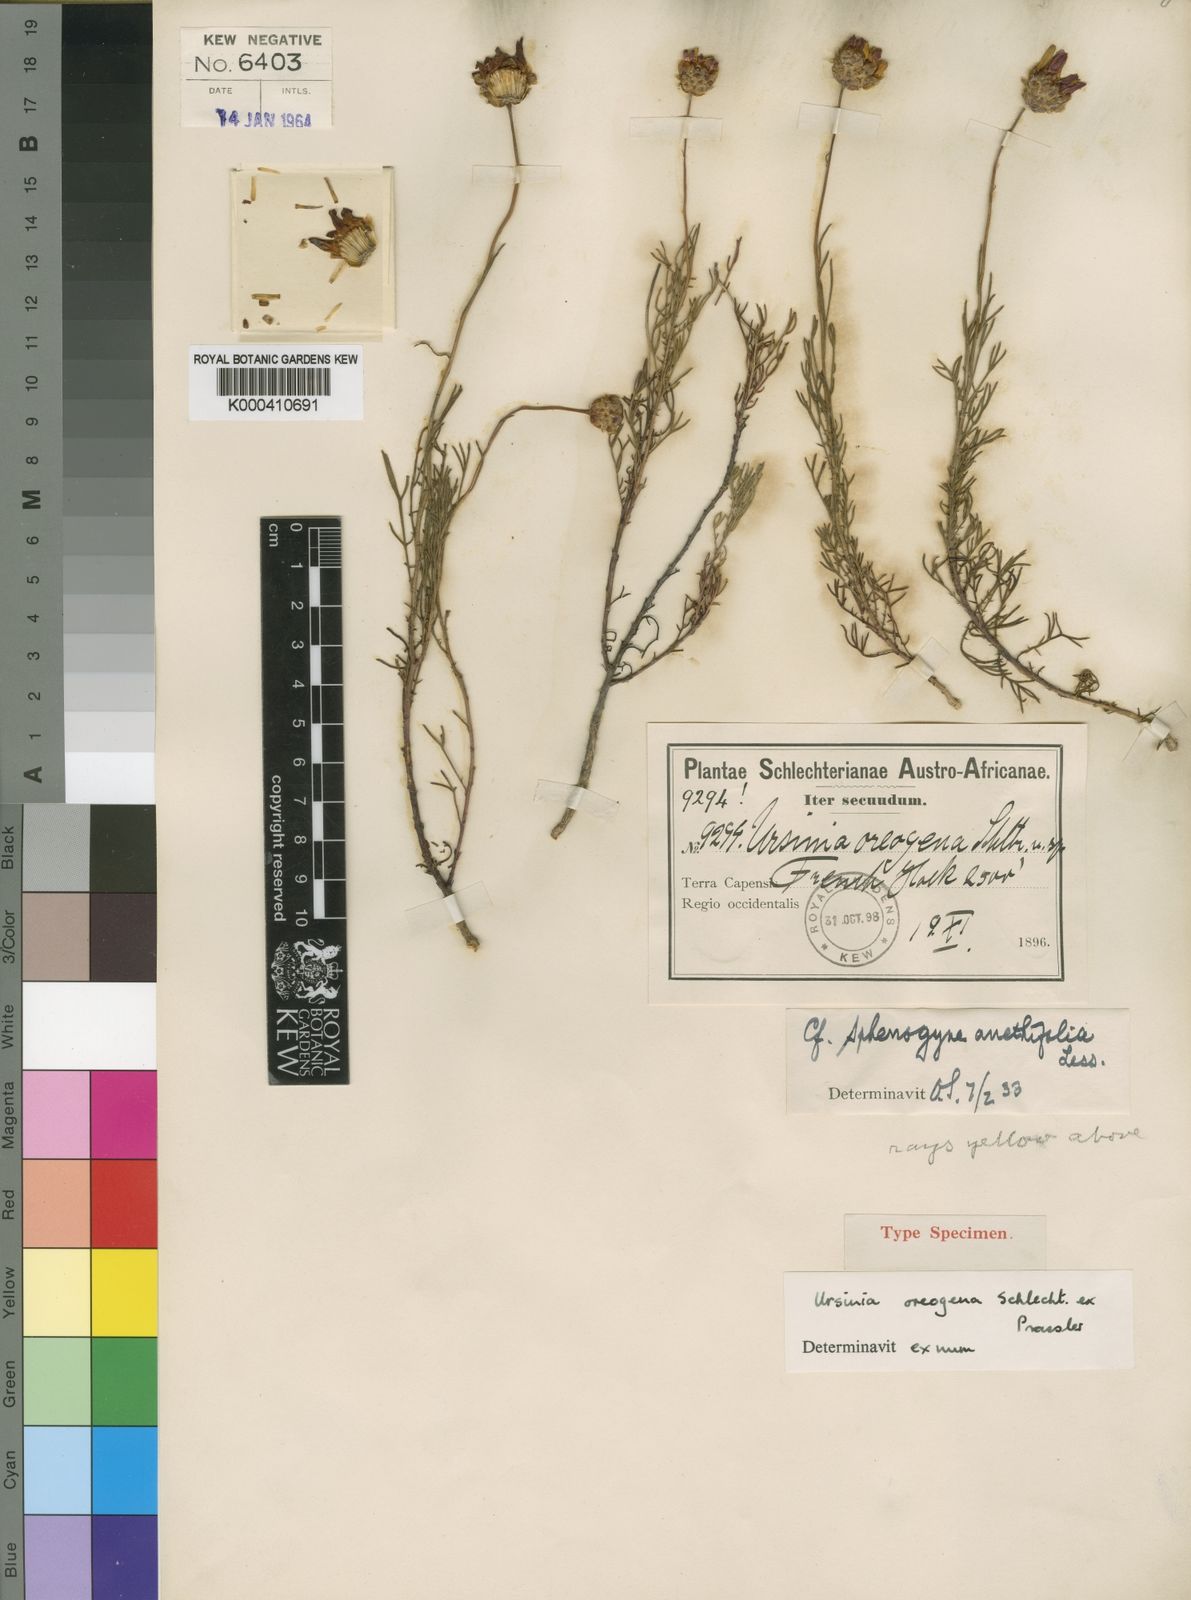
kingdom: Plantae
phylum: Tracheophyta
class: Magnoliopsida
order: Asterales
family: Asteraceae
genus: Ursinia
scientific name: Ursinia oreogena
